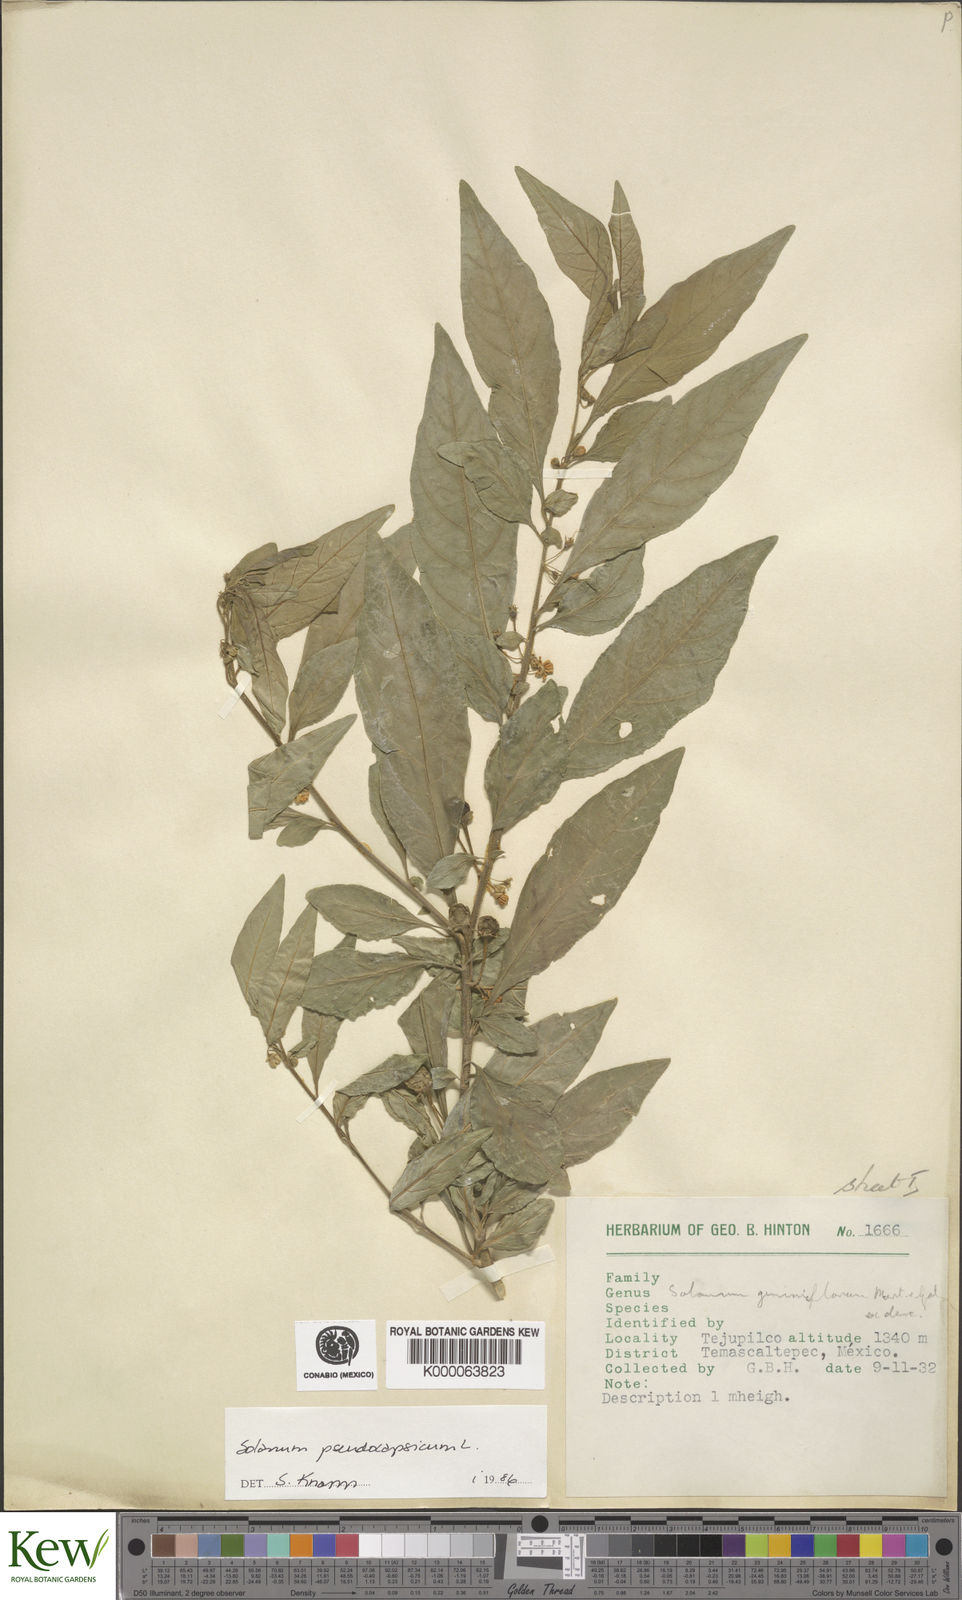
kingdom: Plantae
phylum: Tracheophyta
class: Magnoliopsida
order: Solanales
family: Solanaceae
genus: Solanum
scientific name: Solanum pseudocapsicum
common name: Jerusalem cherry
